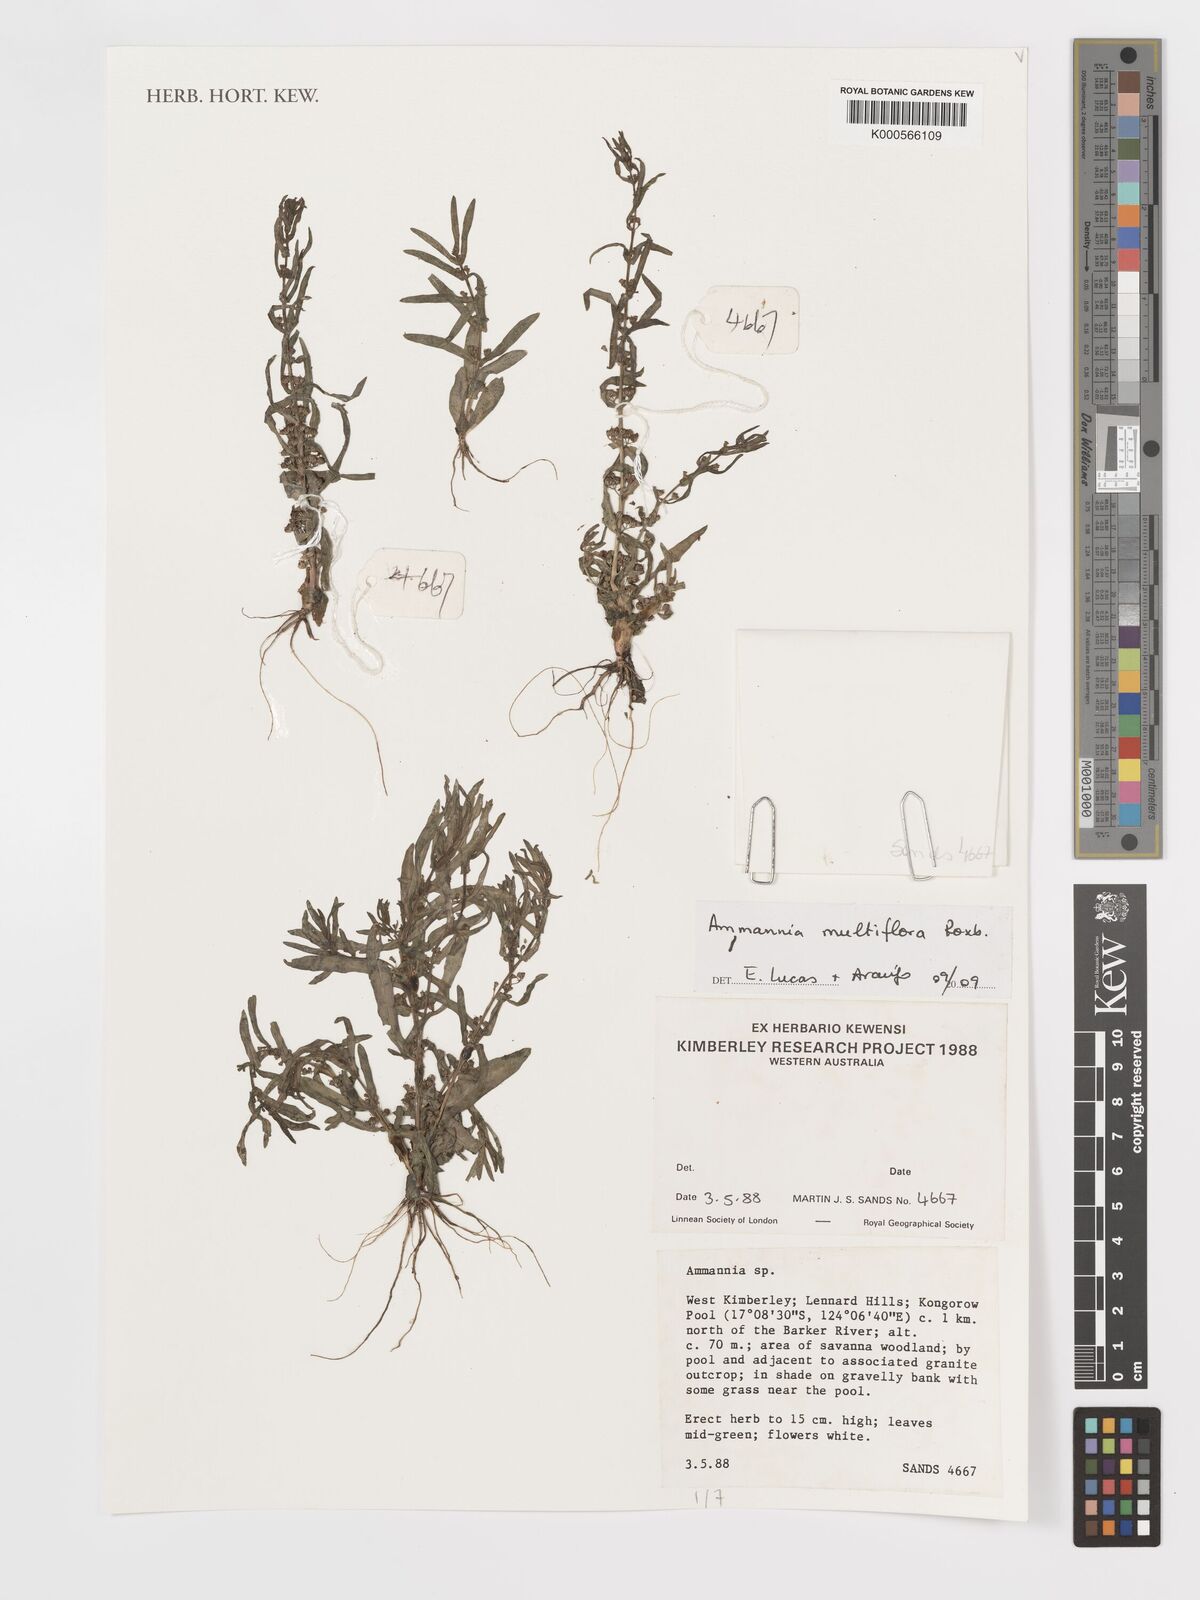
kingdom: Plantae
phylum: Tracheophyta
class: Magnoliopsida
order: Myrtales
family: Lythraceae
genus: Ammannia
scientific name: Ammannia auriculata
